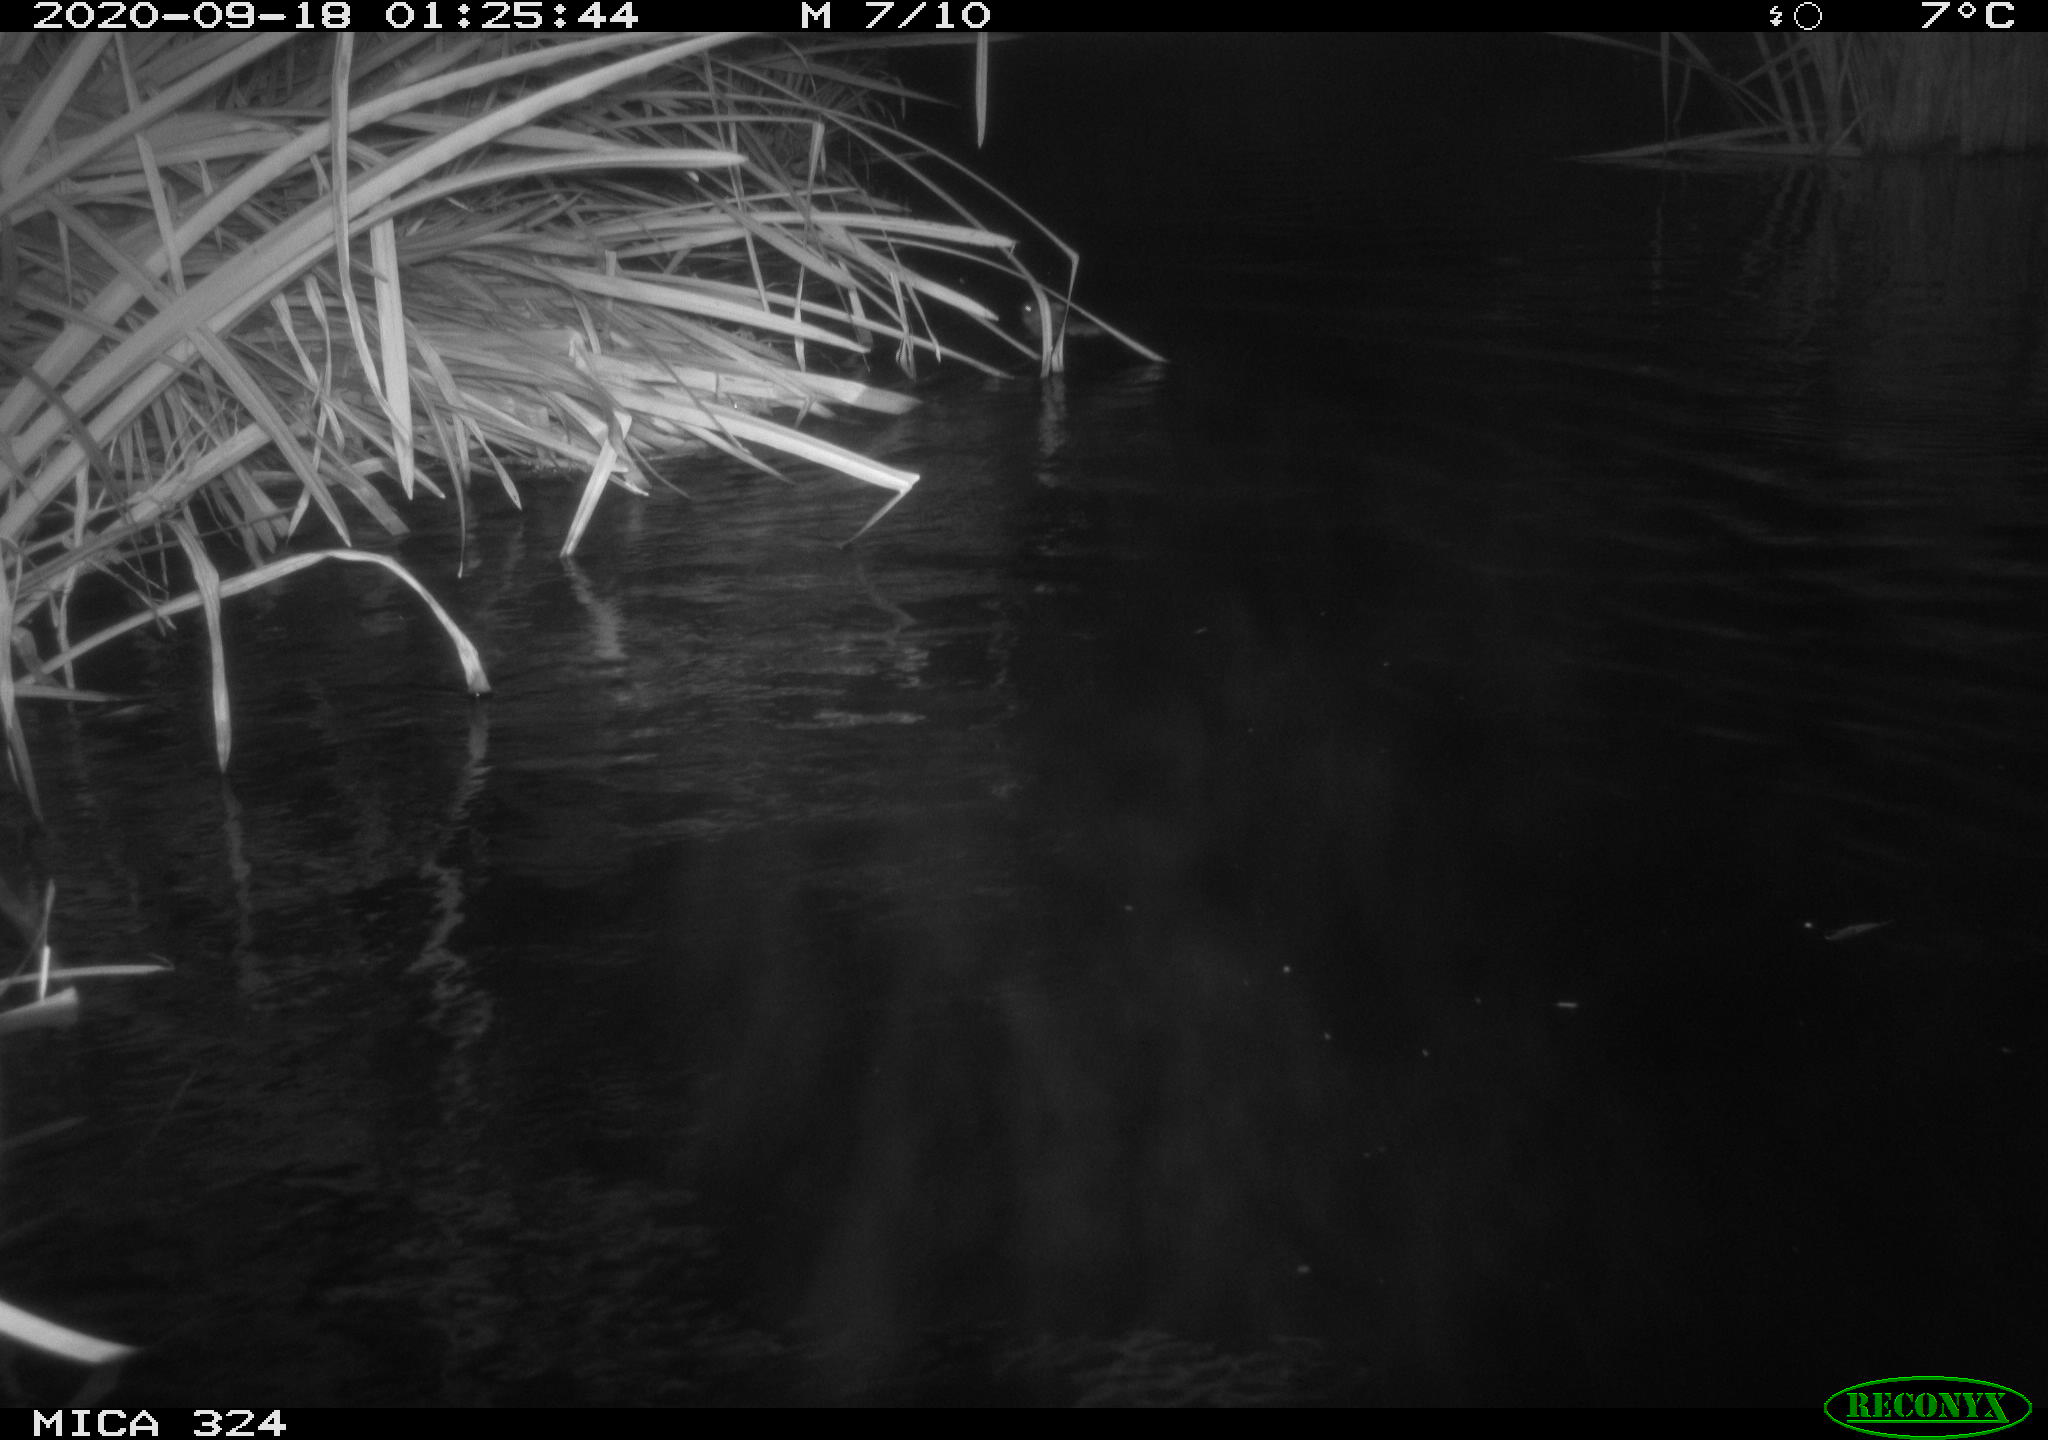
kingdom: Animalia
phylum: Chordata
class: Mammalia
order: Rodentia
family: Cricetidae
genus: Ondatra
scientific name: Ondatra zibethicus
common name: Muskrat
